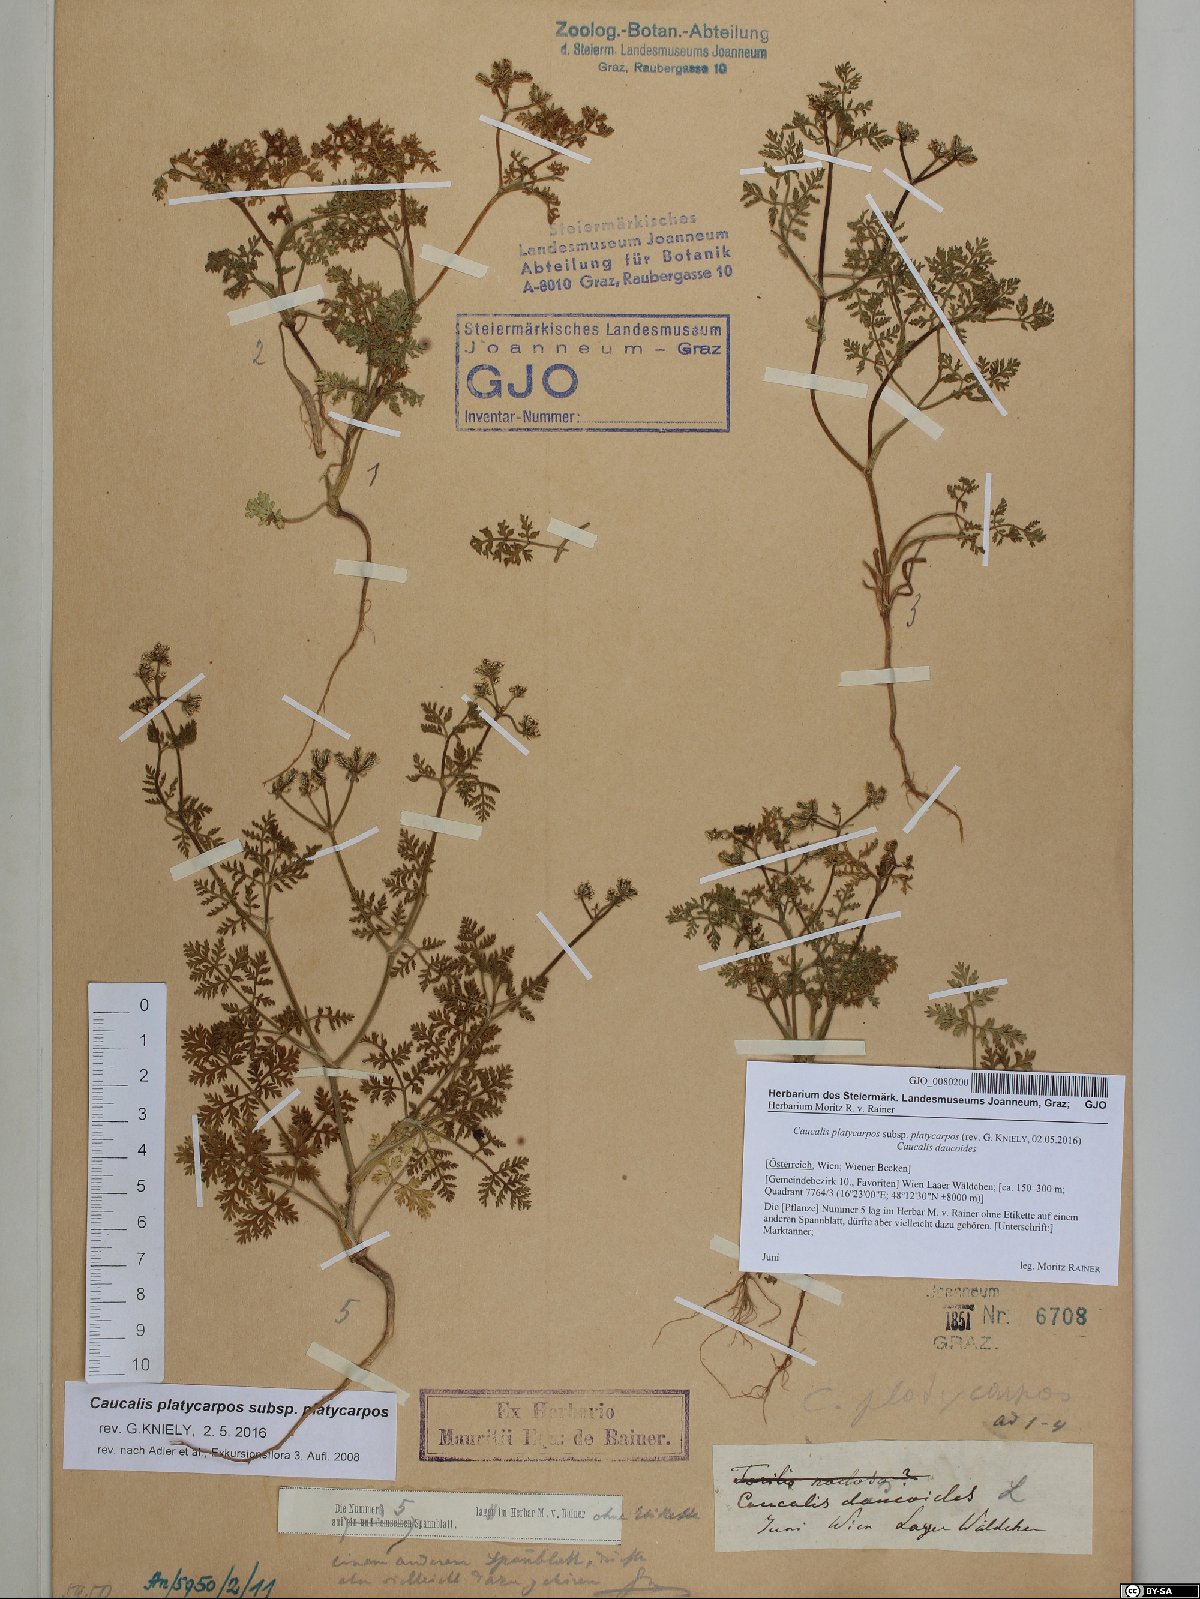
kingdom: Plantae
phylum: Tracheophyta
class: Magnoliopsida
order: Apiales
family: Apiaceae
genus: Caucalis
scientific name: Caucalis platycarpos
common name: Small bur-parsley
